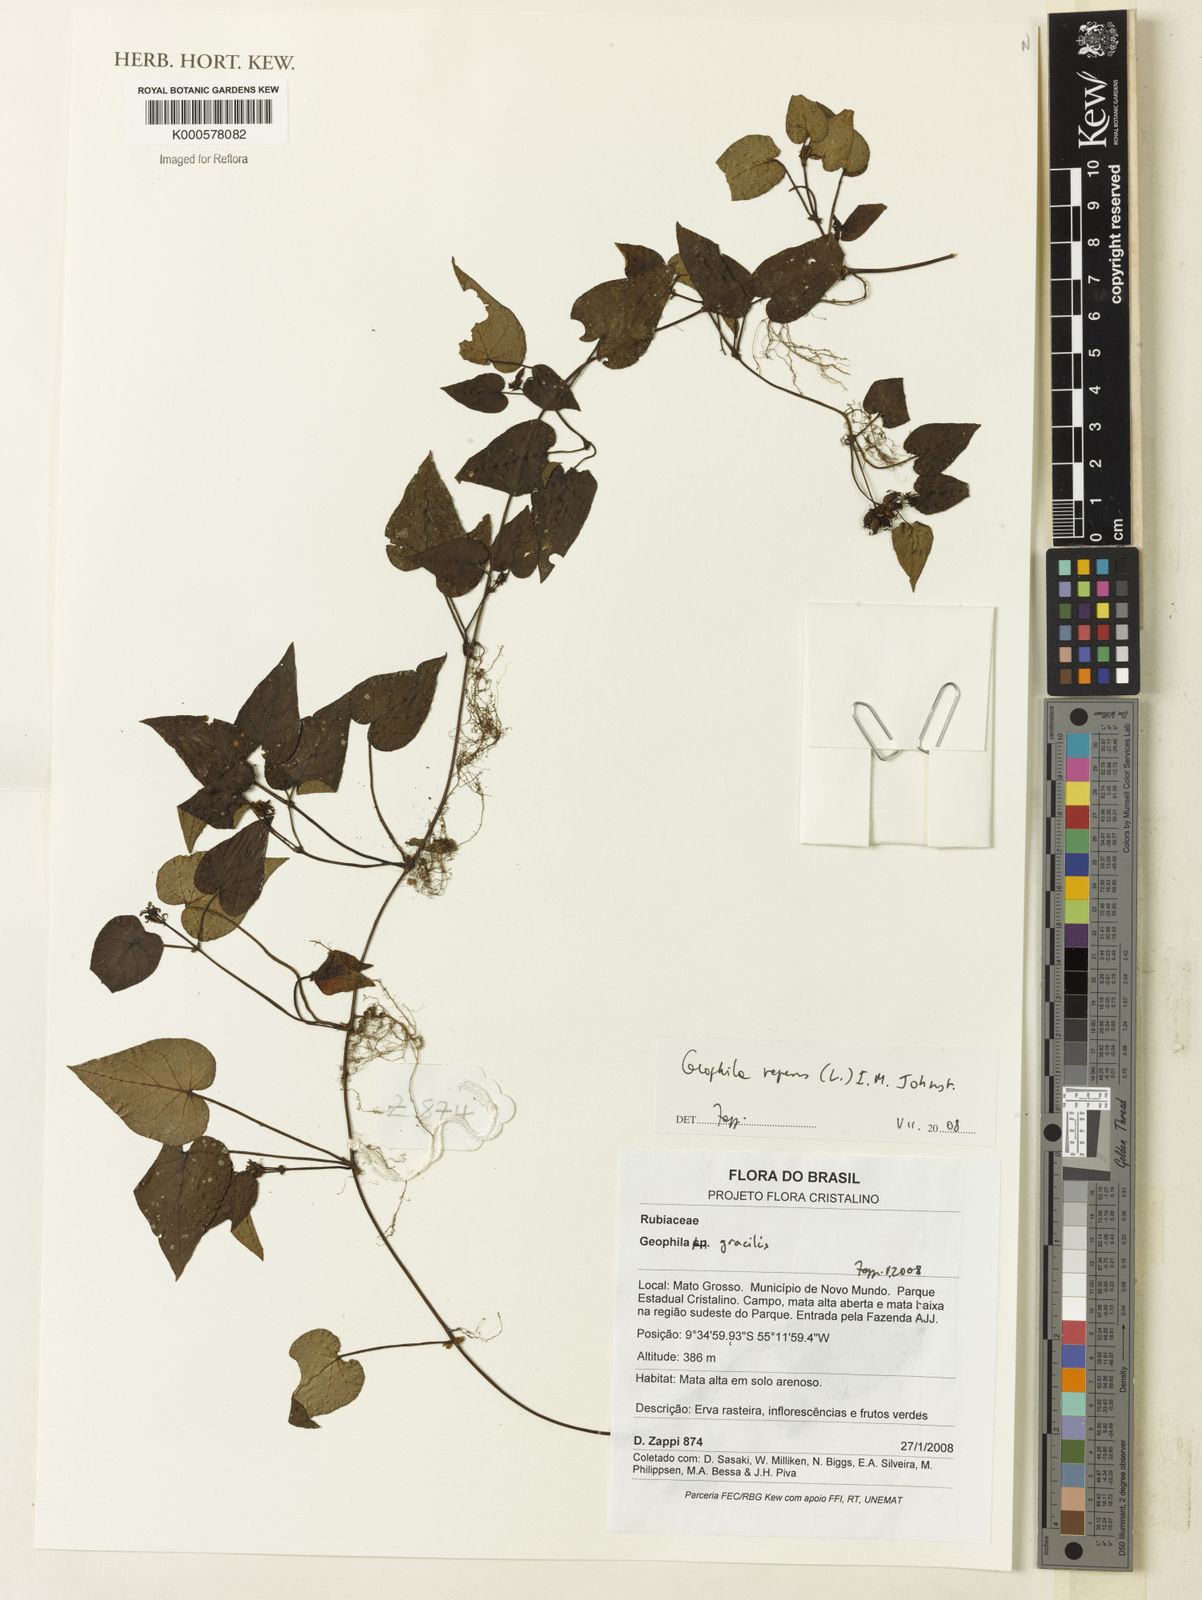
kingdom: Plantae
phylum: Tracheophyta
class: Magnoliopsida
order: Gentianales
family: Rubiaceae
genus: Geophila
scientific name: Geophila repens
